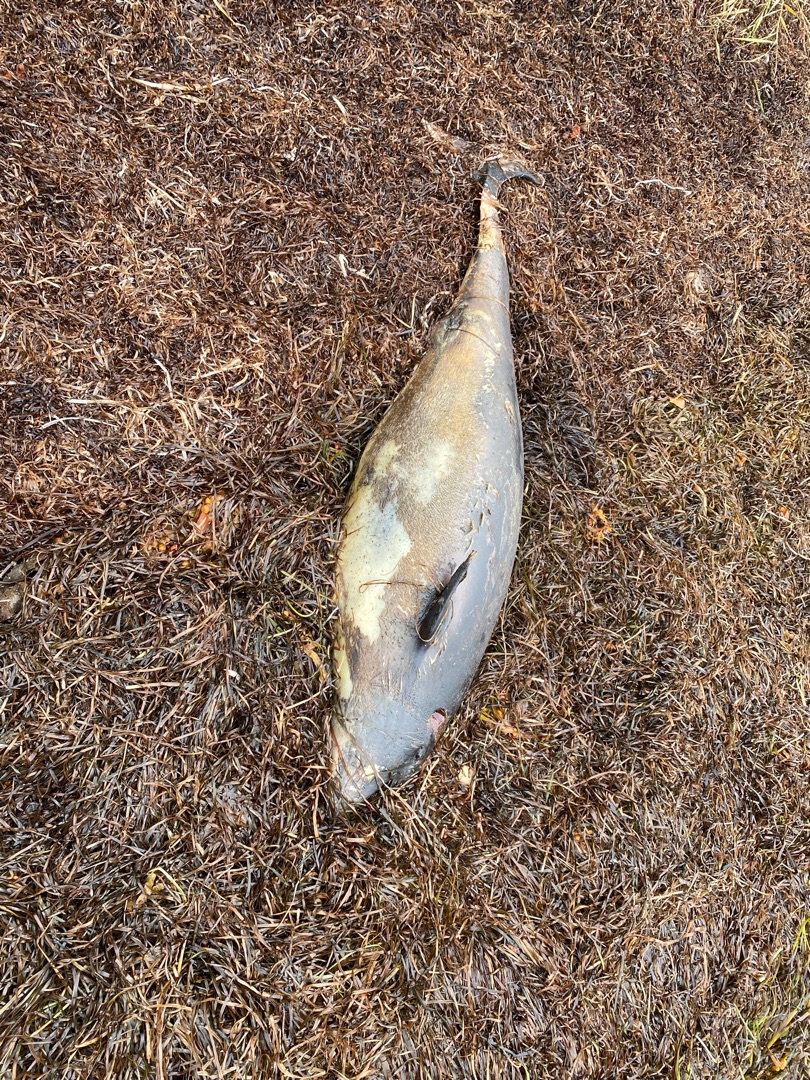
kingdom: Animalia
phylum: Chordata
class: Mammalia
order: Cetacea
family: Phocoenidae
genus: Phocoena
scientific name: Phocoena phocoena
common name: Marsvin
